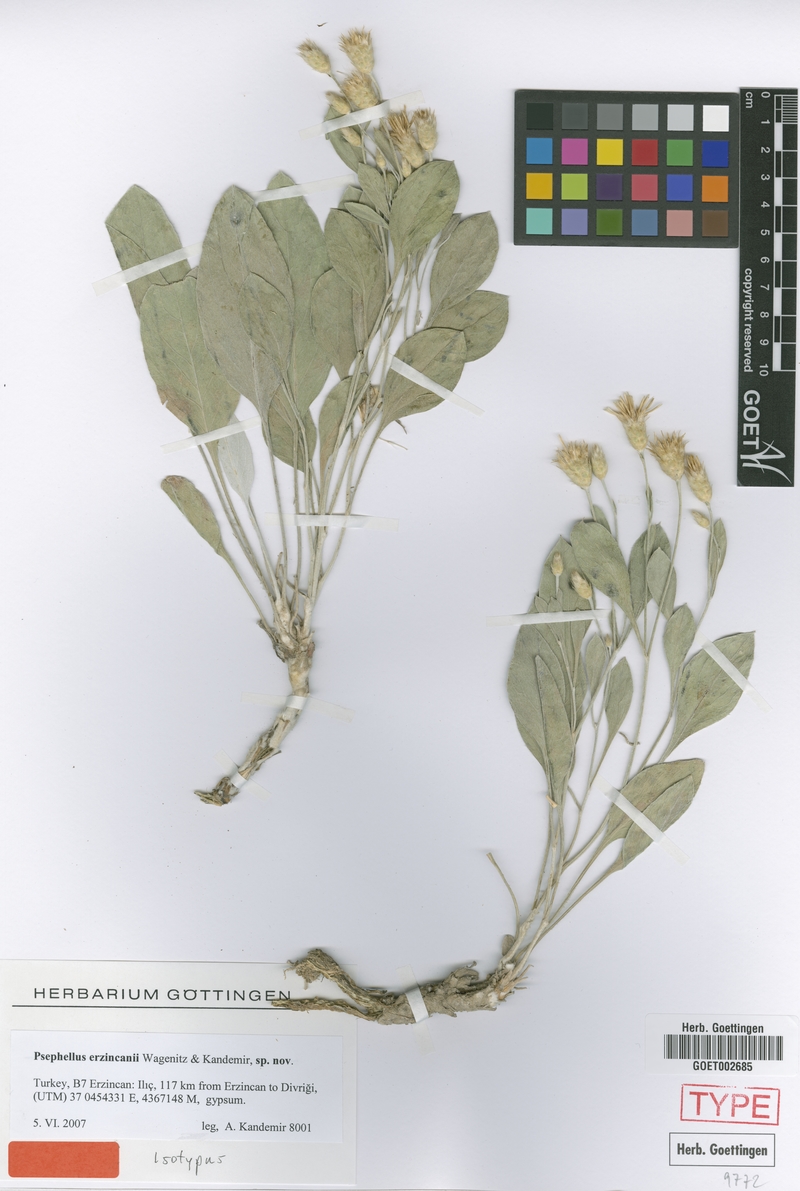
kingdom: Plantae
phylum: Tracheophyta
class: Magnoliopsida
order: Asterales
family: Asteraceae
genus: Psephellus
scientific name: Psephellus erzincani
